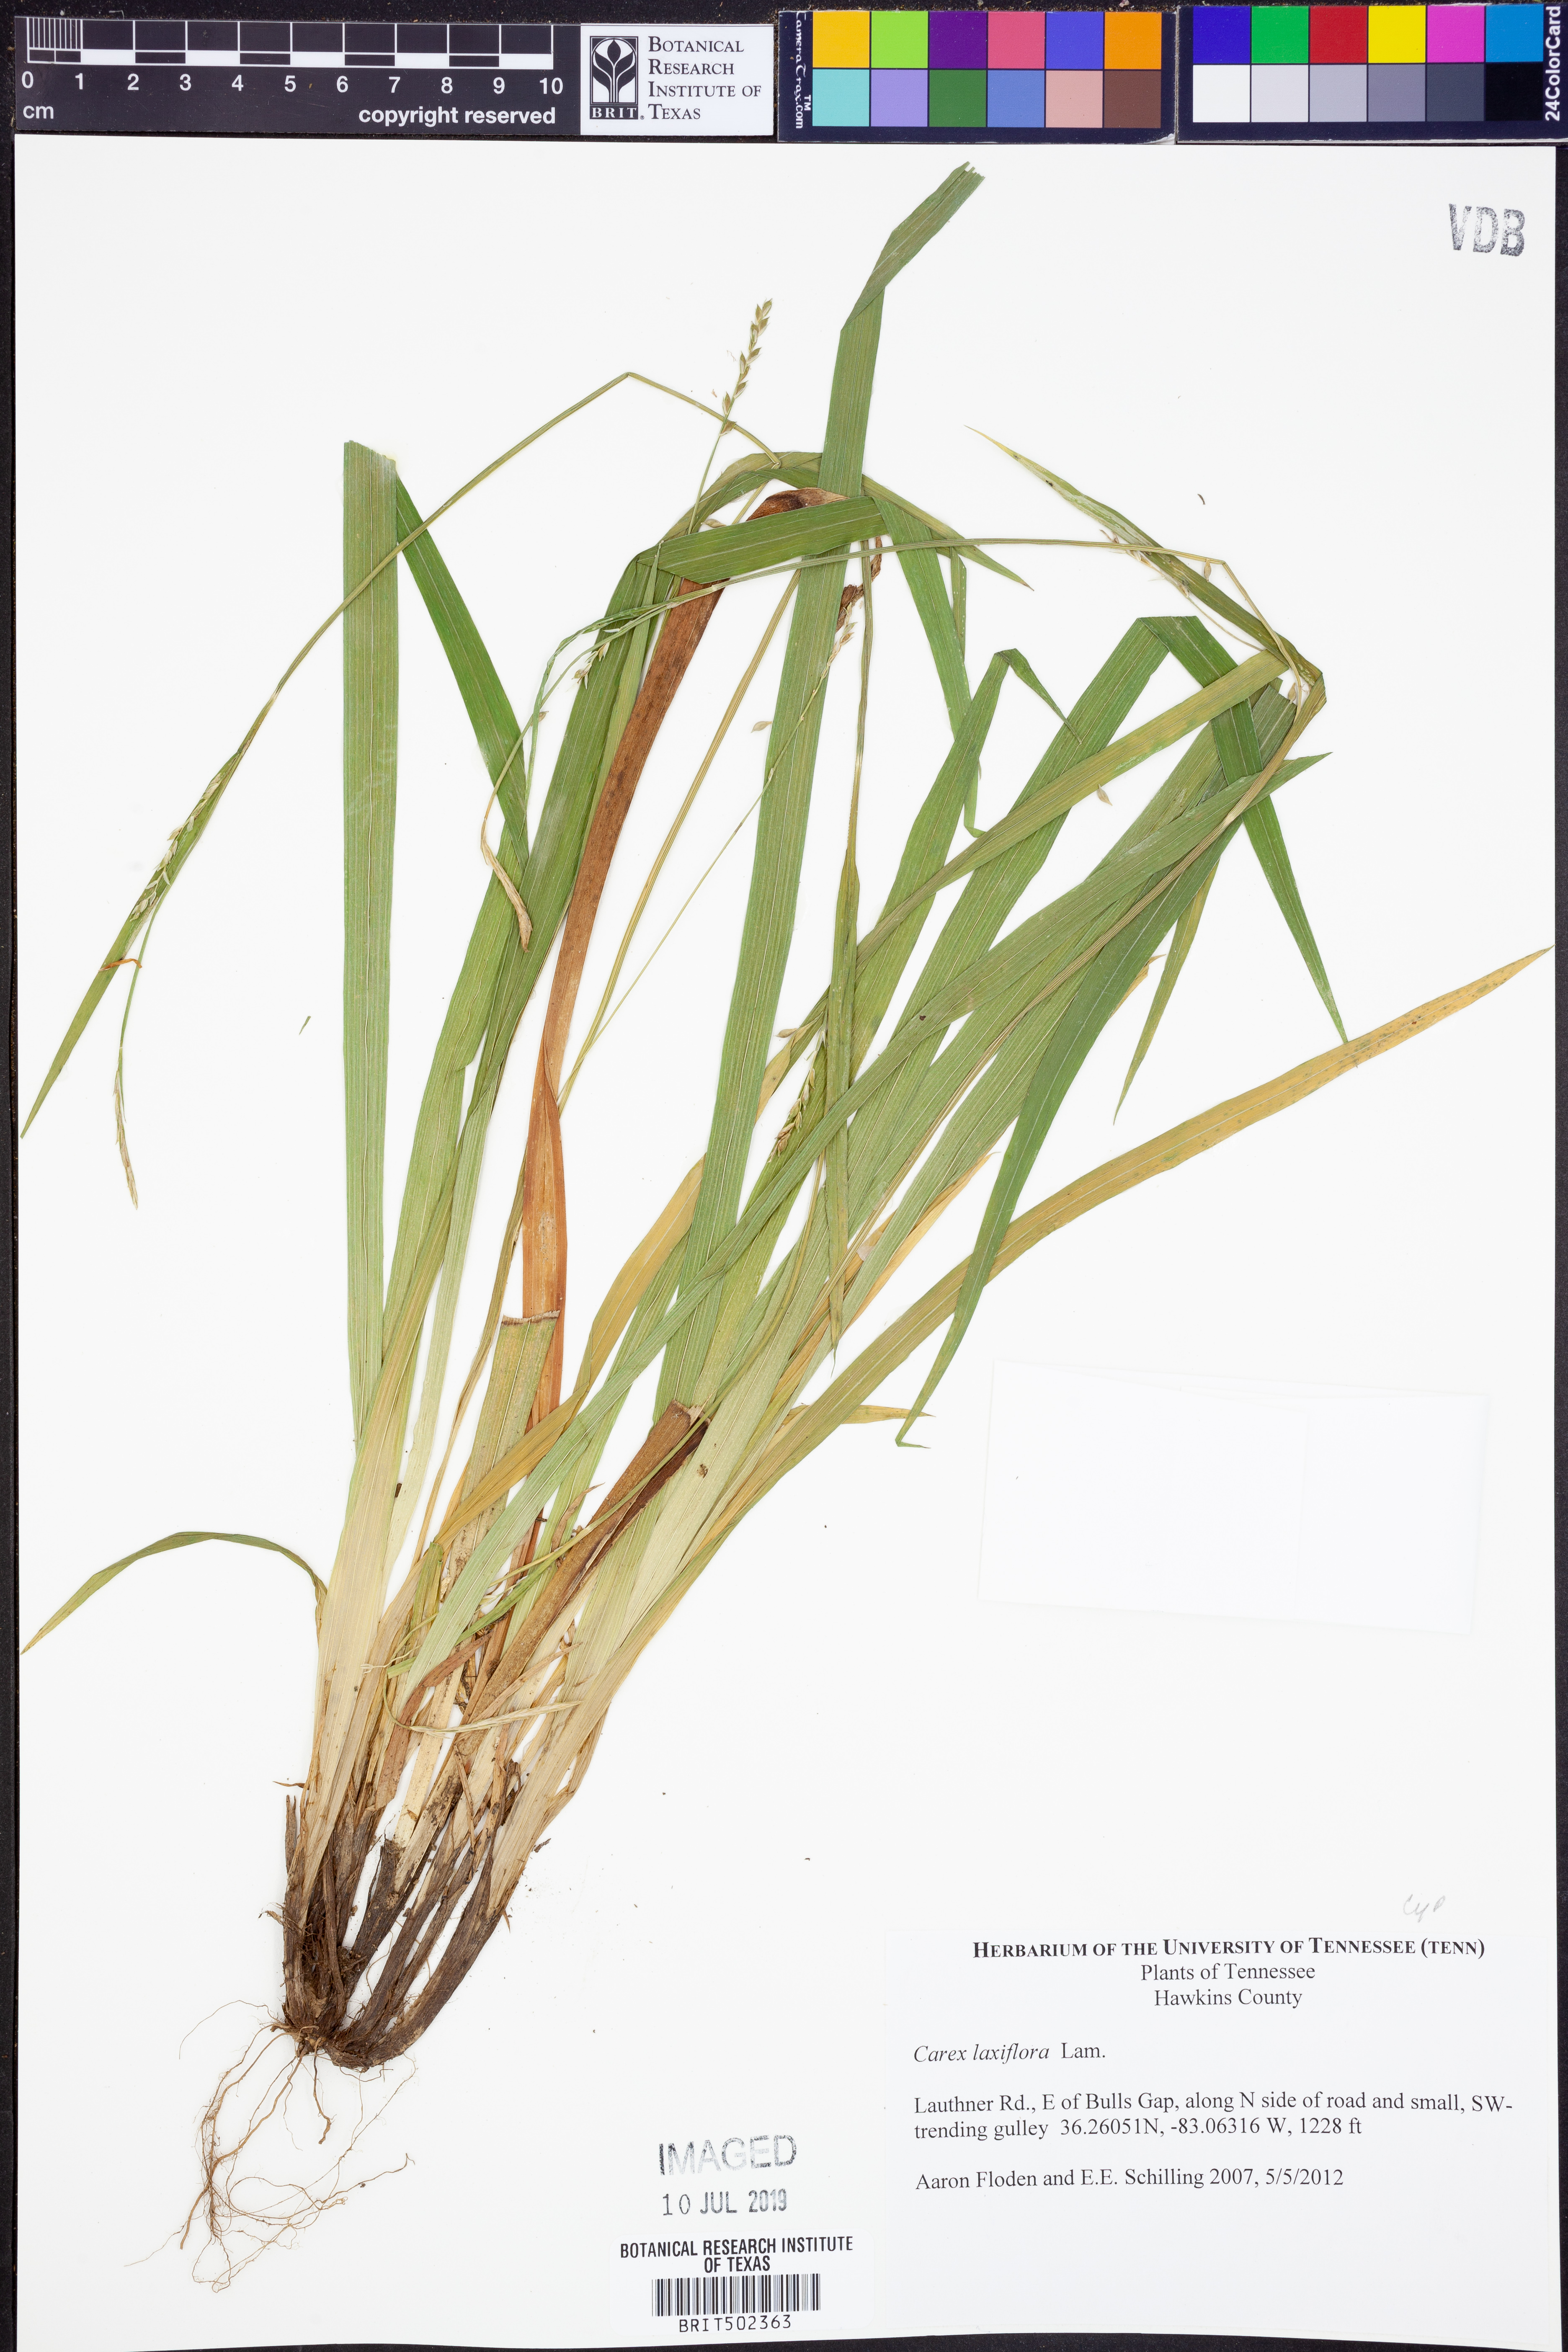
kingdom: Plantae
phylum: Tracheophyta
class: Liliopsida
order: Poales
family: Cyperaceae
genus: Carex
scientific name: Carex laxiflora
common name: Beech wood sedge
